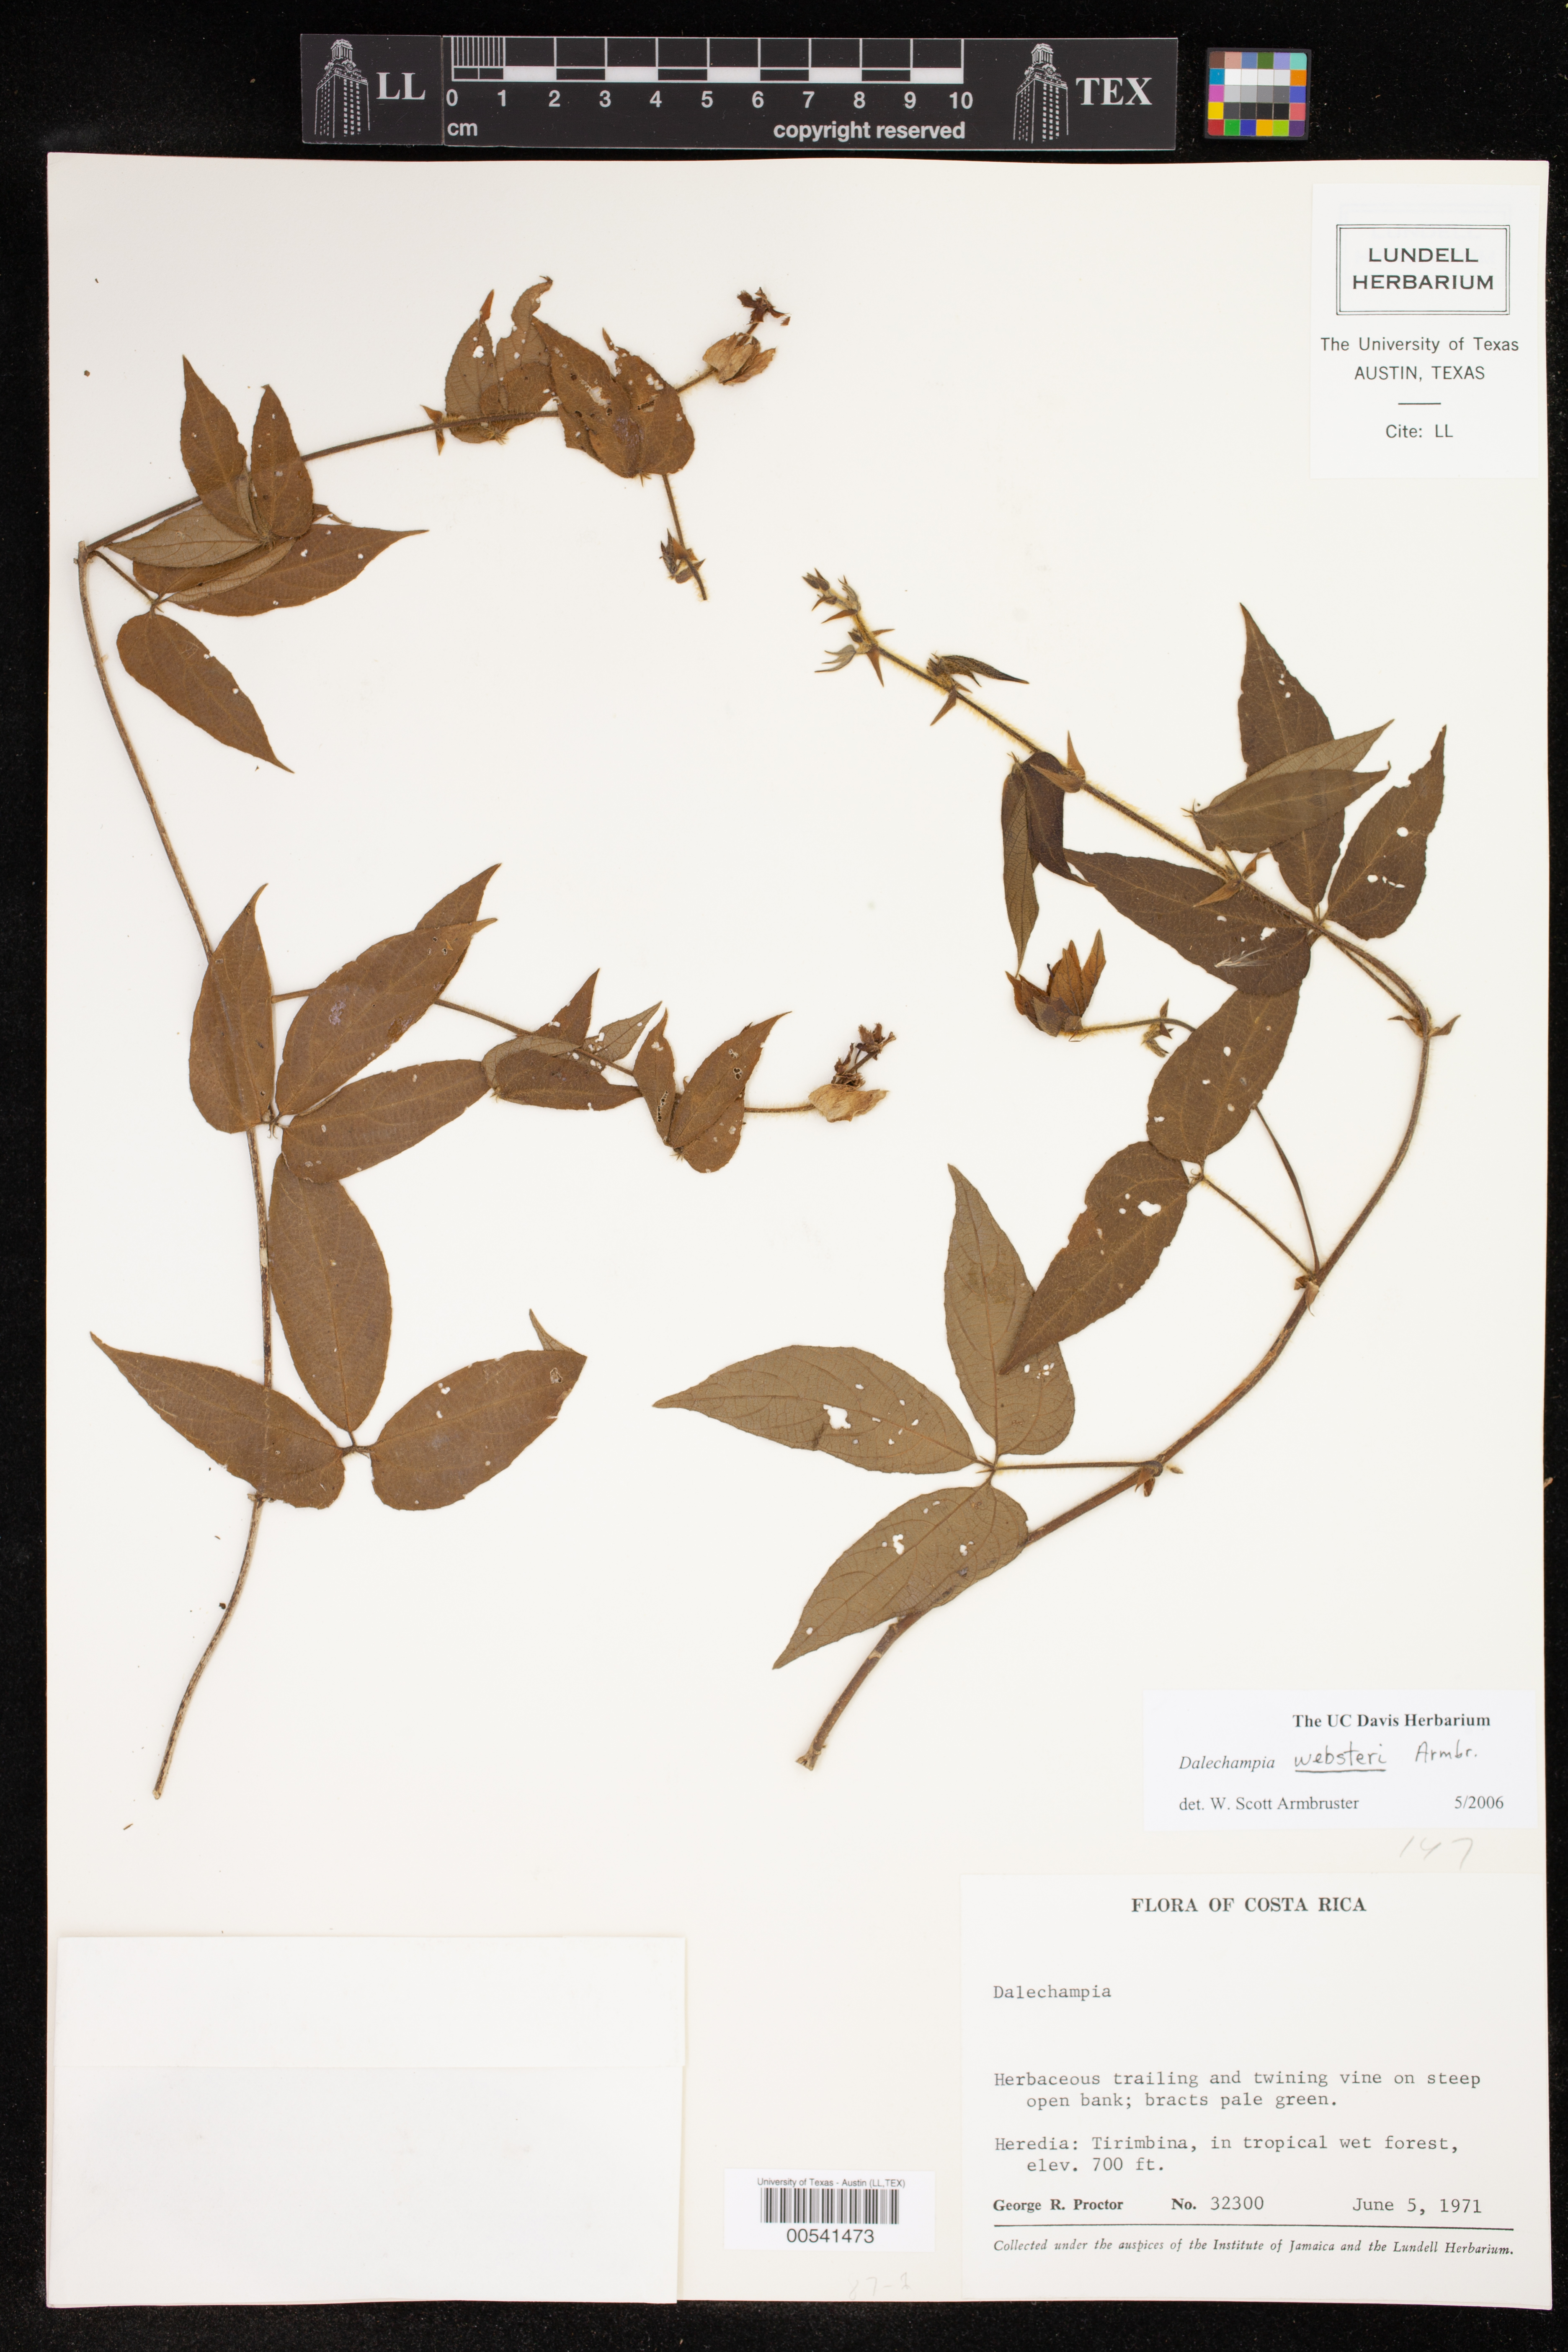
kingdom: Plantae
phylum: Tracheophyta
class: Magnoliopsida
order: Malpighiales
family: Euphorbiaceae
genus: Dalechampia
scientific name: Dalechampia websteri
